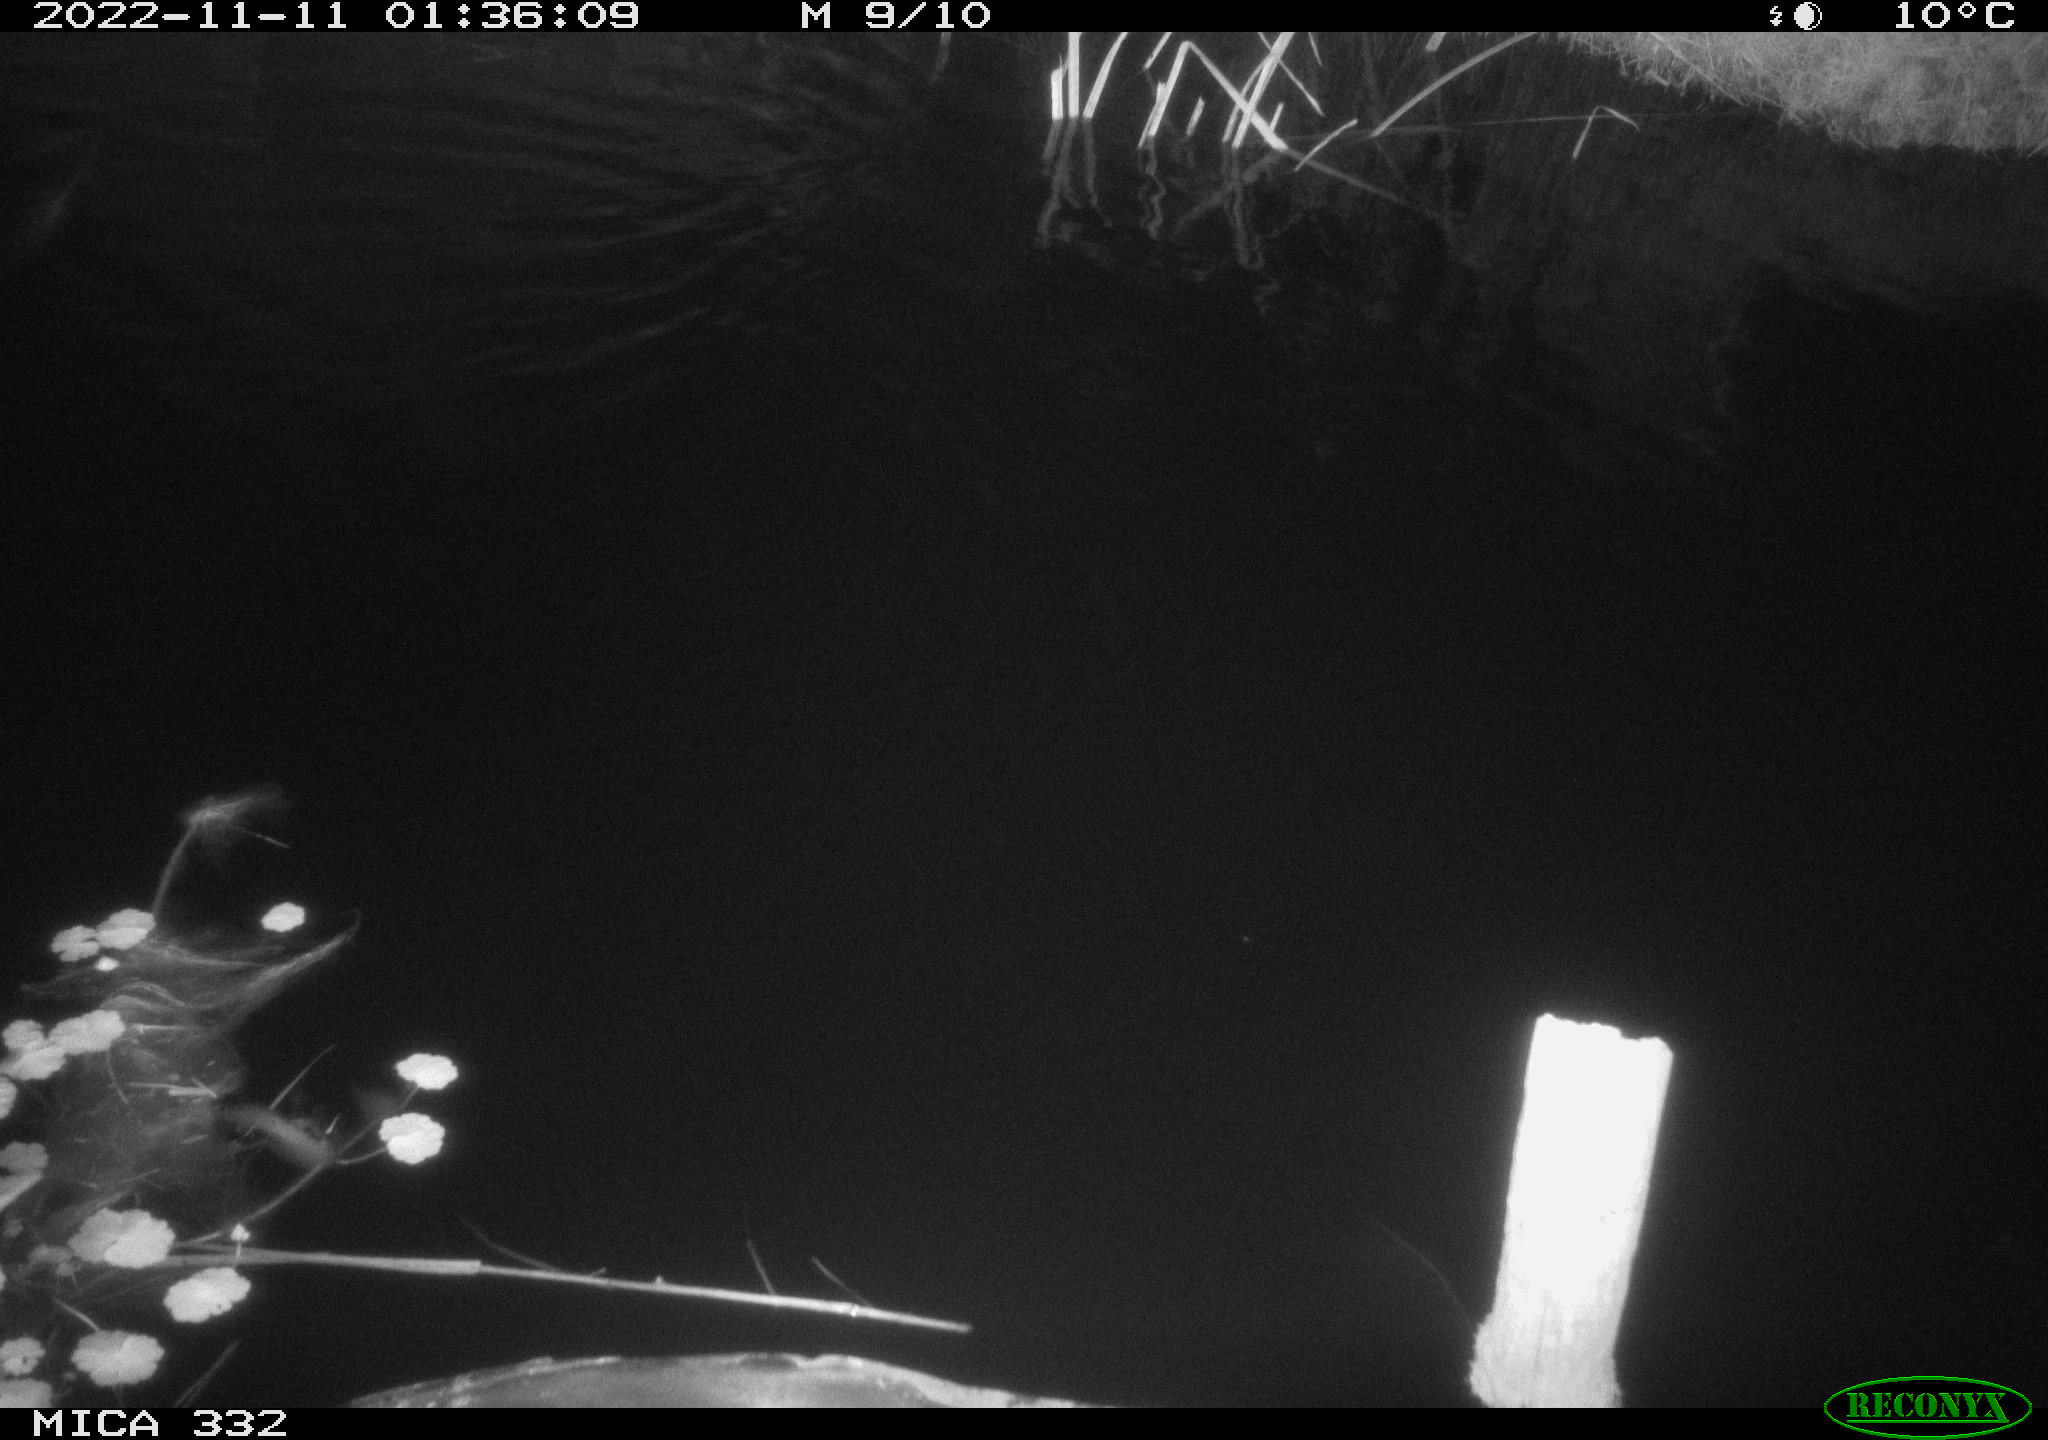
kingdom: Animalia
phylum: Chordata
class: Mammalia
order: Rodentia
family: Muridae
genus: Rattus
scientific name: Rattus norvegicus
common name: Brown rat
